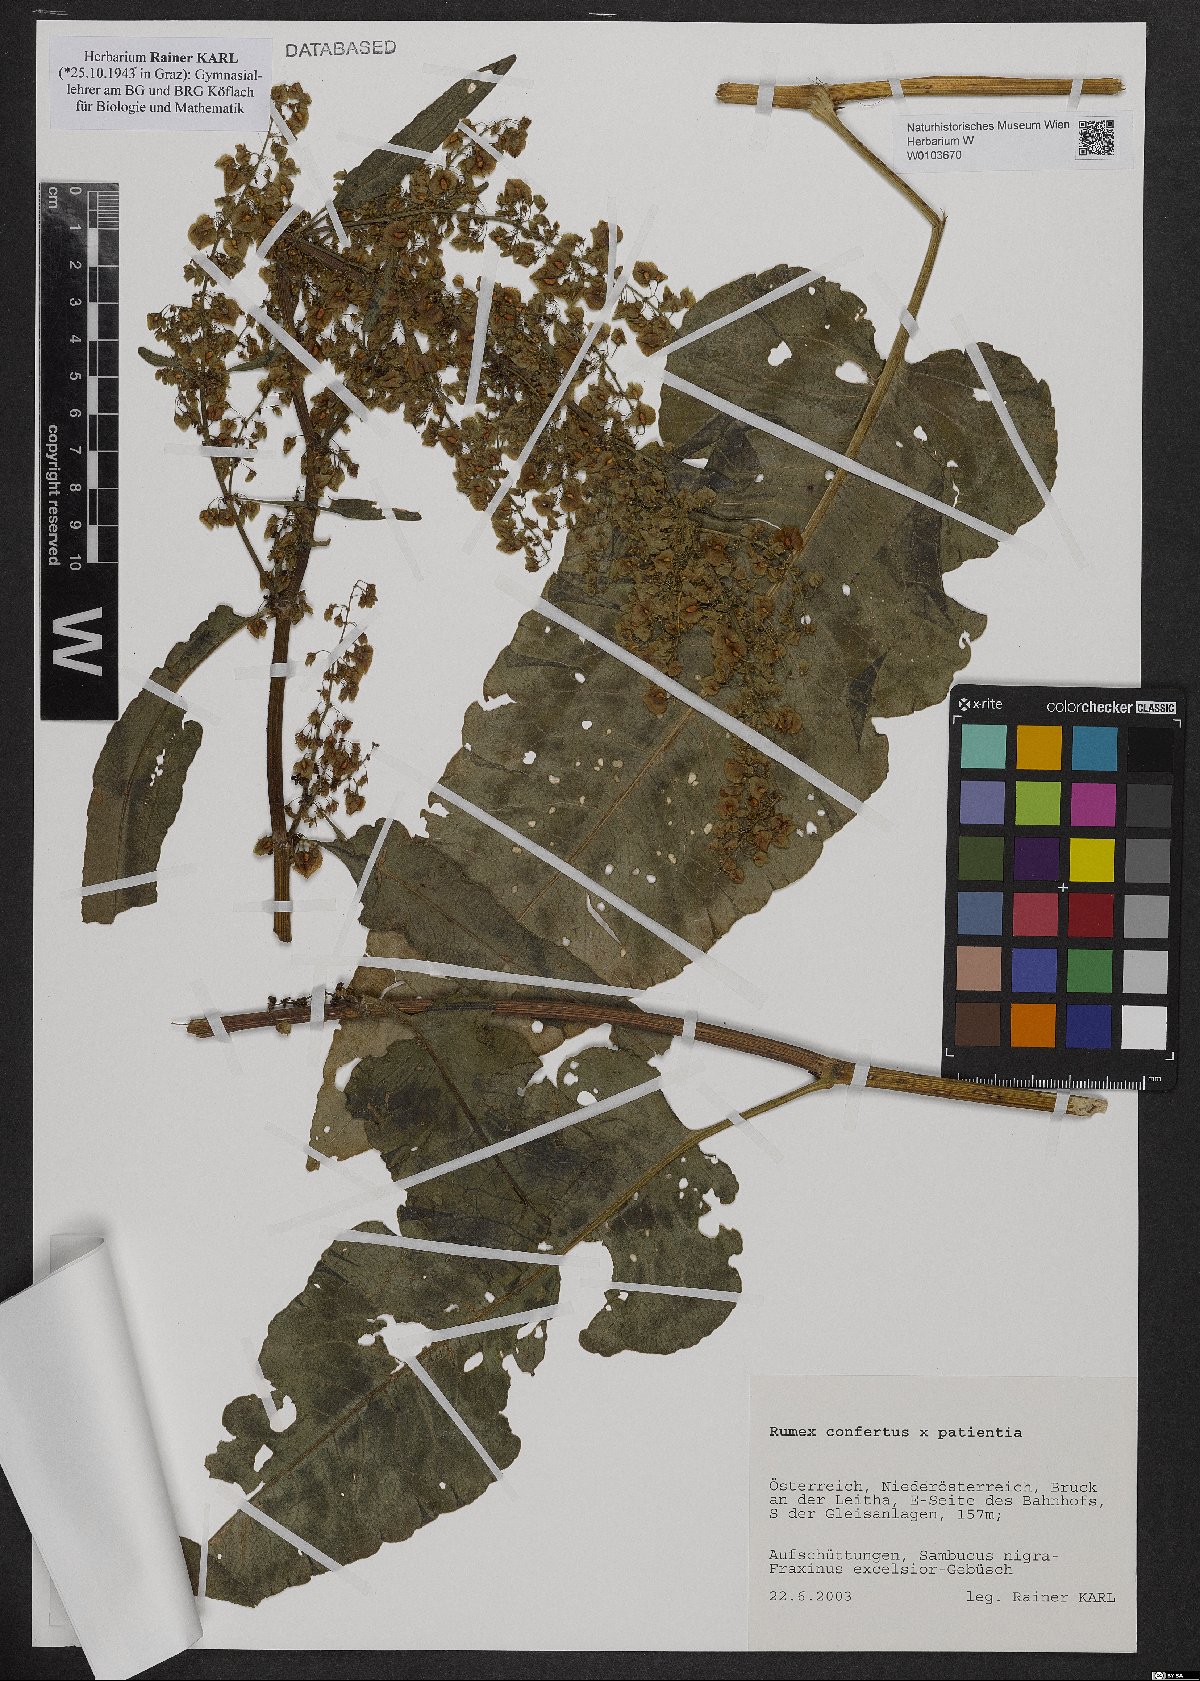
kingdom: Plantae
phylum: Tracheophyta
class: Magnoliopsida
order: Caryophyllales
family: Polygonaceae
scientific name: Polygonaceae
